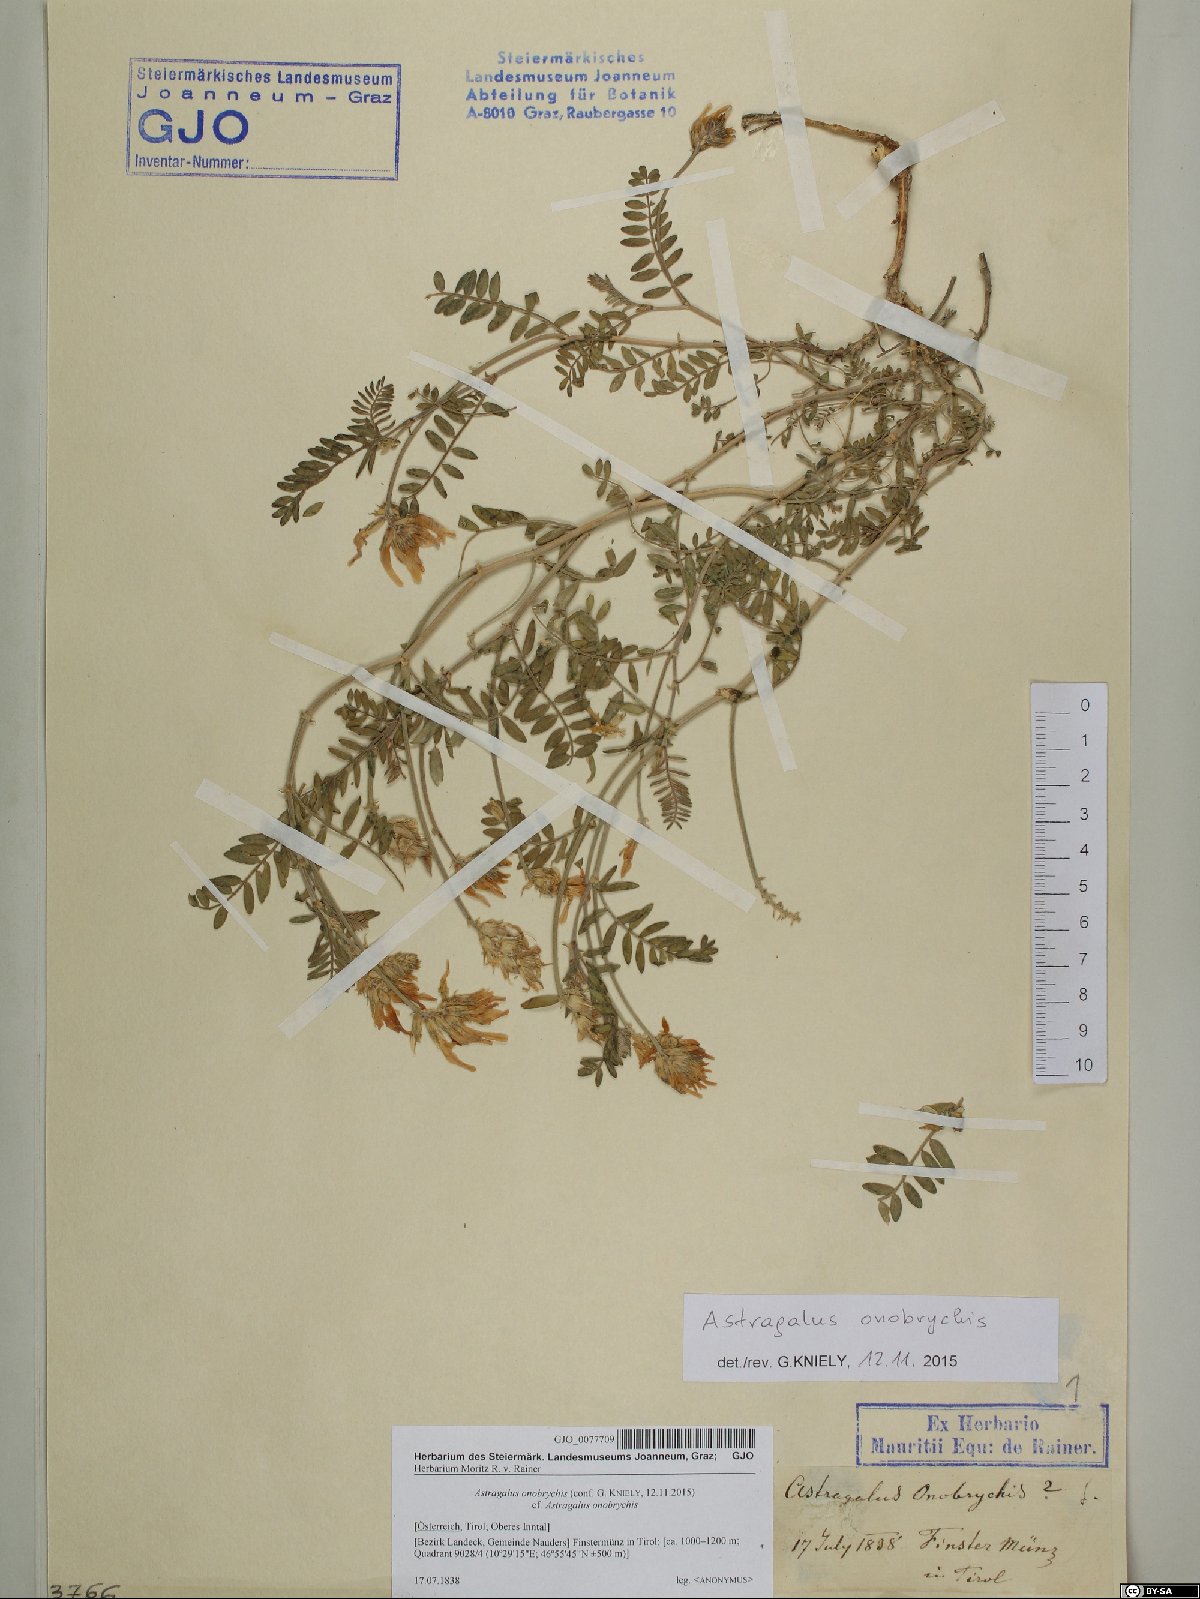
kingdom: Plantae
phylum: Tracheophyta
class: Magnoliopsida
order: Fabales
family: Fabaceae
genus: Astragalus
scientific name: Astragalus onobrychis
